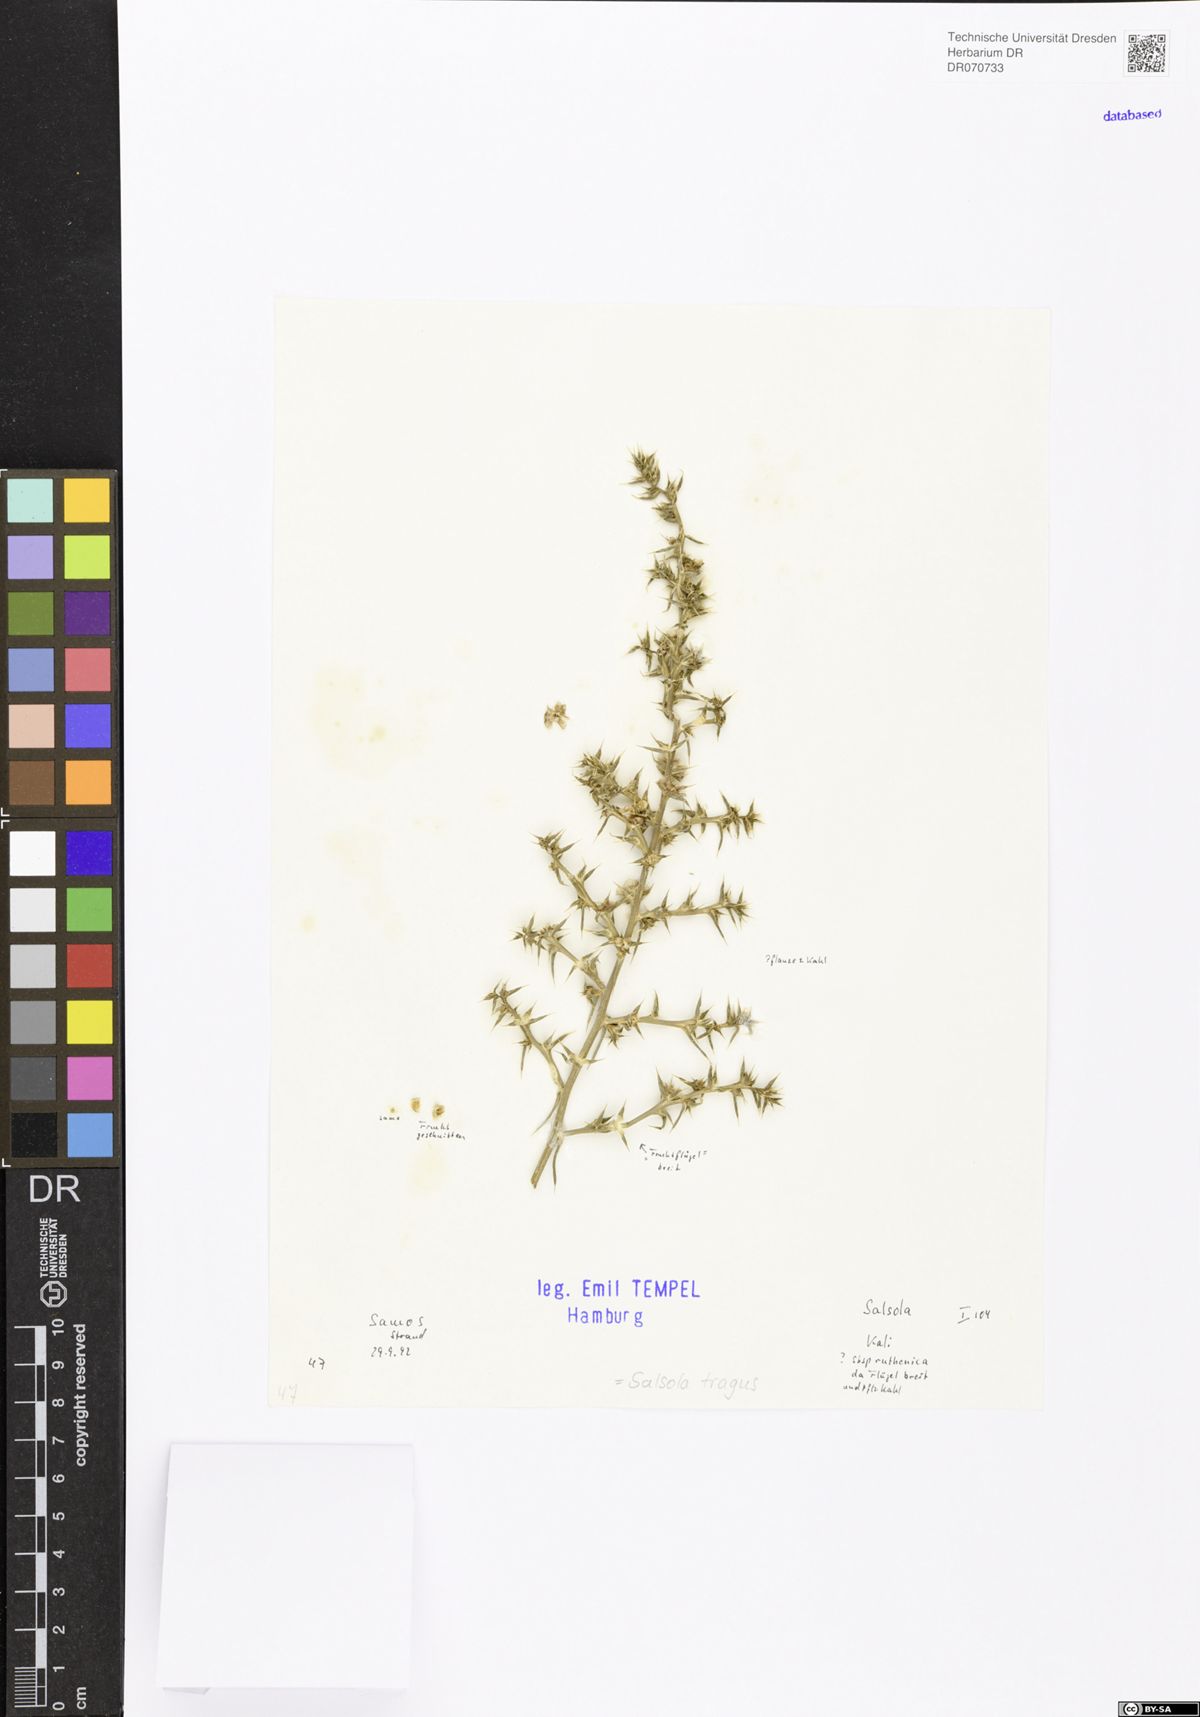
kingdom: Plantae
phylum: Tracheophyta
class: Magnoliopsida
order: Caryophyllales
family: Amaranthaceae
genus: Salsola
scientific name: Salsola tragus
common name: Prickly russian thistle
